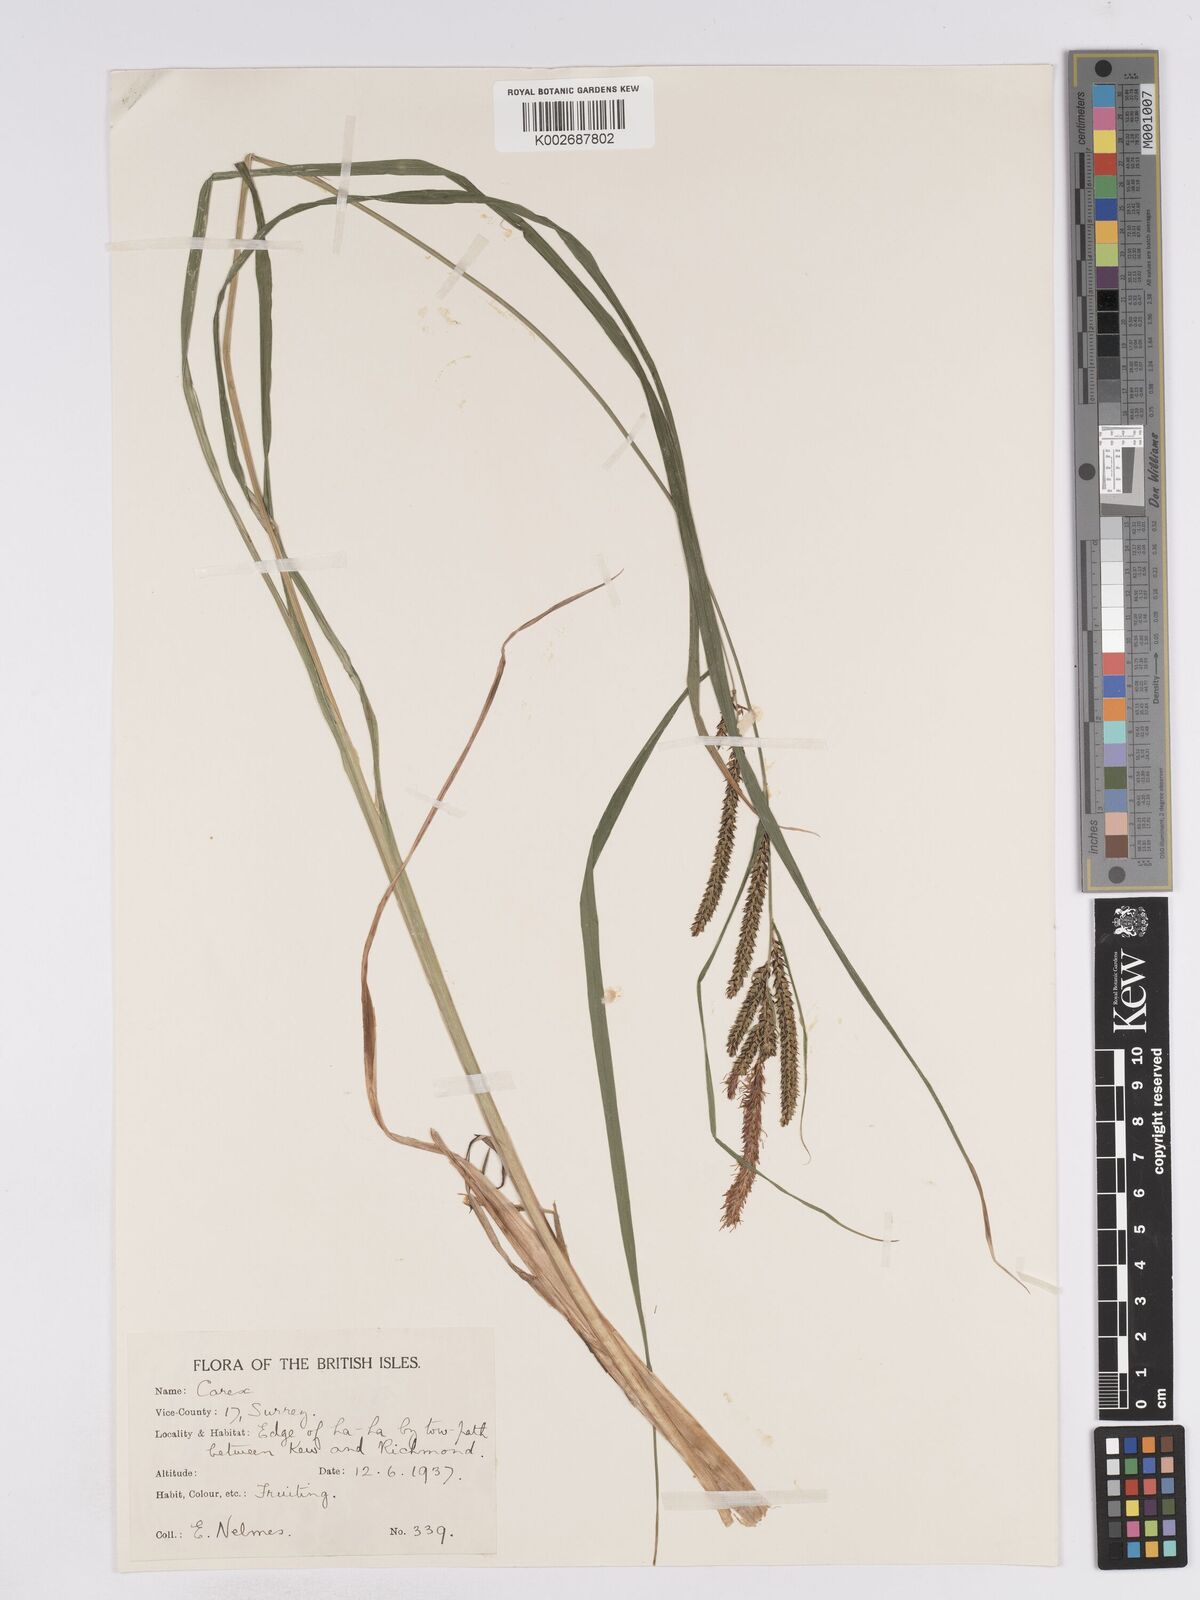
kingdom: Plantae
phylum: Tracheophyta
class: Liliopsida
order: Poales
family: Cyperaceae
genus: Carex
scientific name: Carex acuta
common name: Slender tufted-sedge
